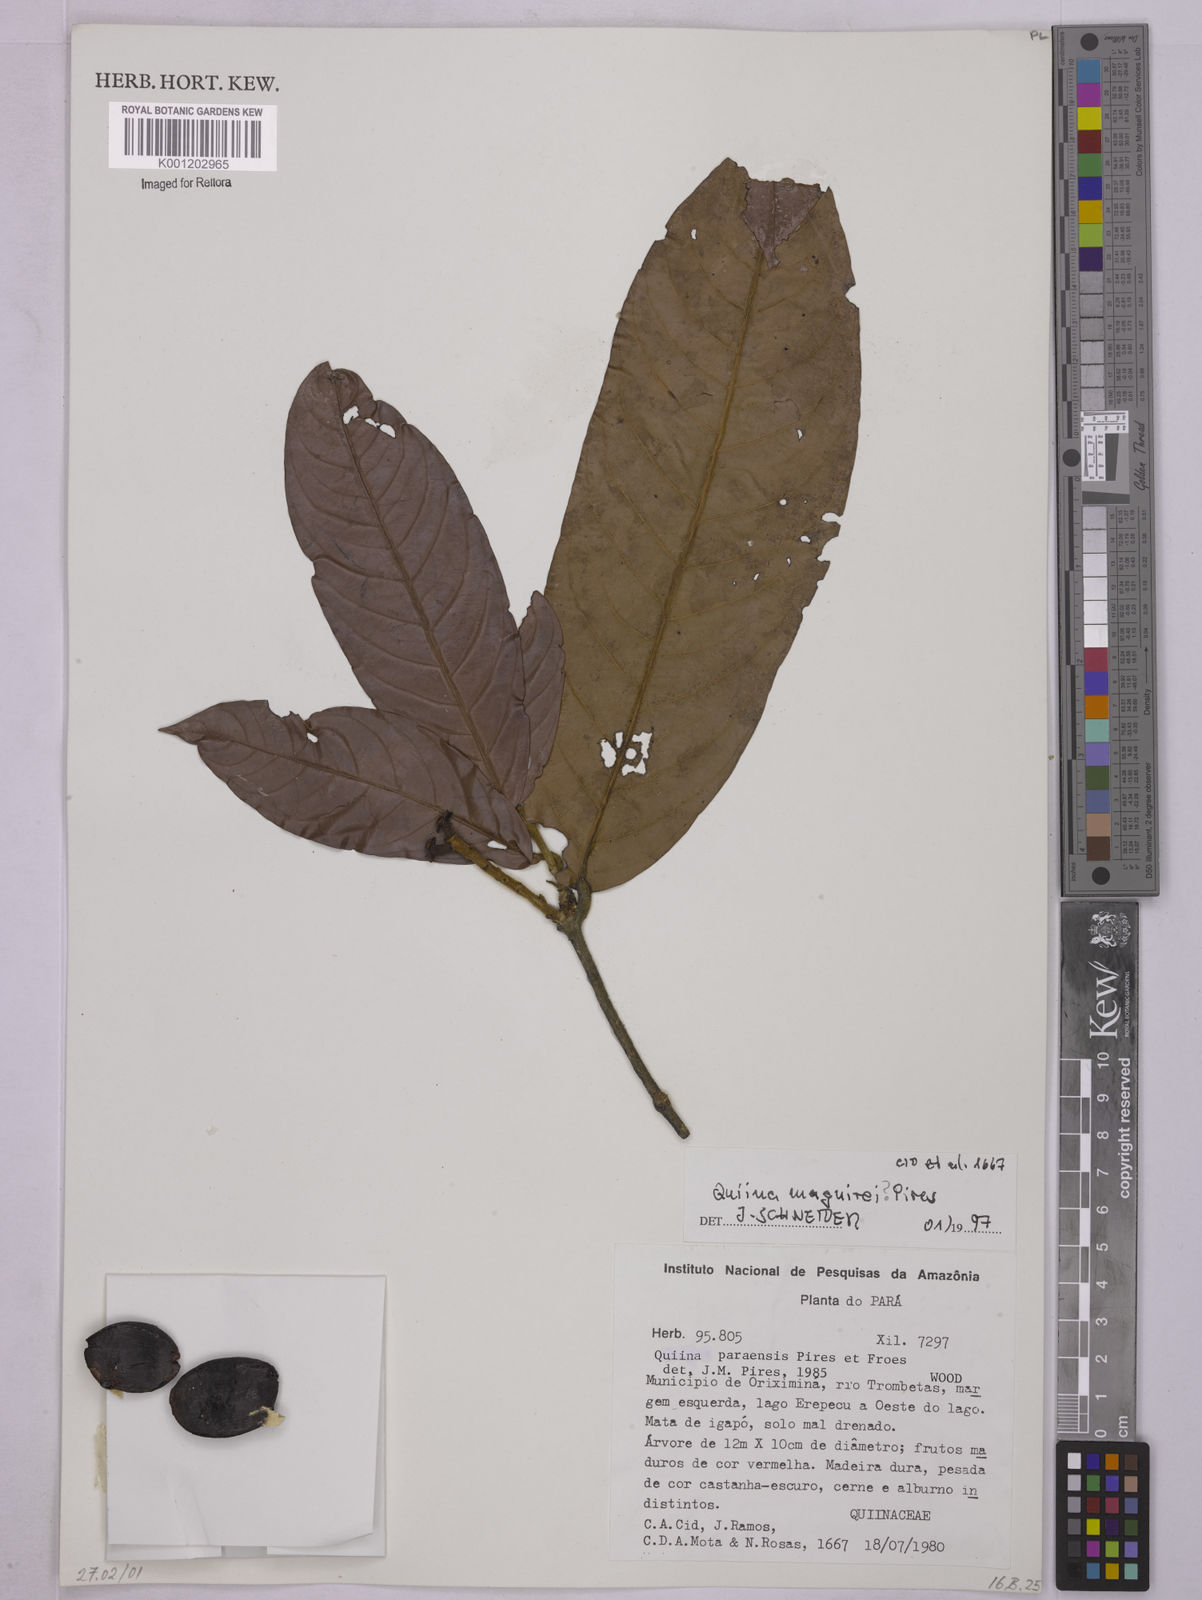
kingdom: Plantae
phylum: Tracheophyta
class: Magnoliopsida
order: Malpighiales
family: Quiinaceae
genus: Quiina
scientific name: Quiina maguirei
